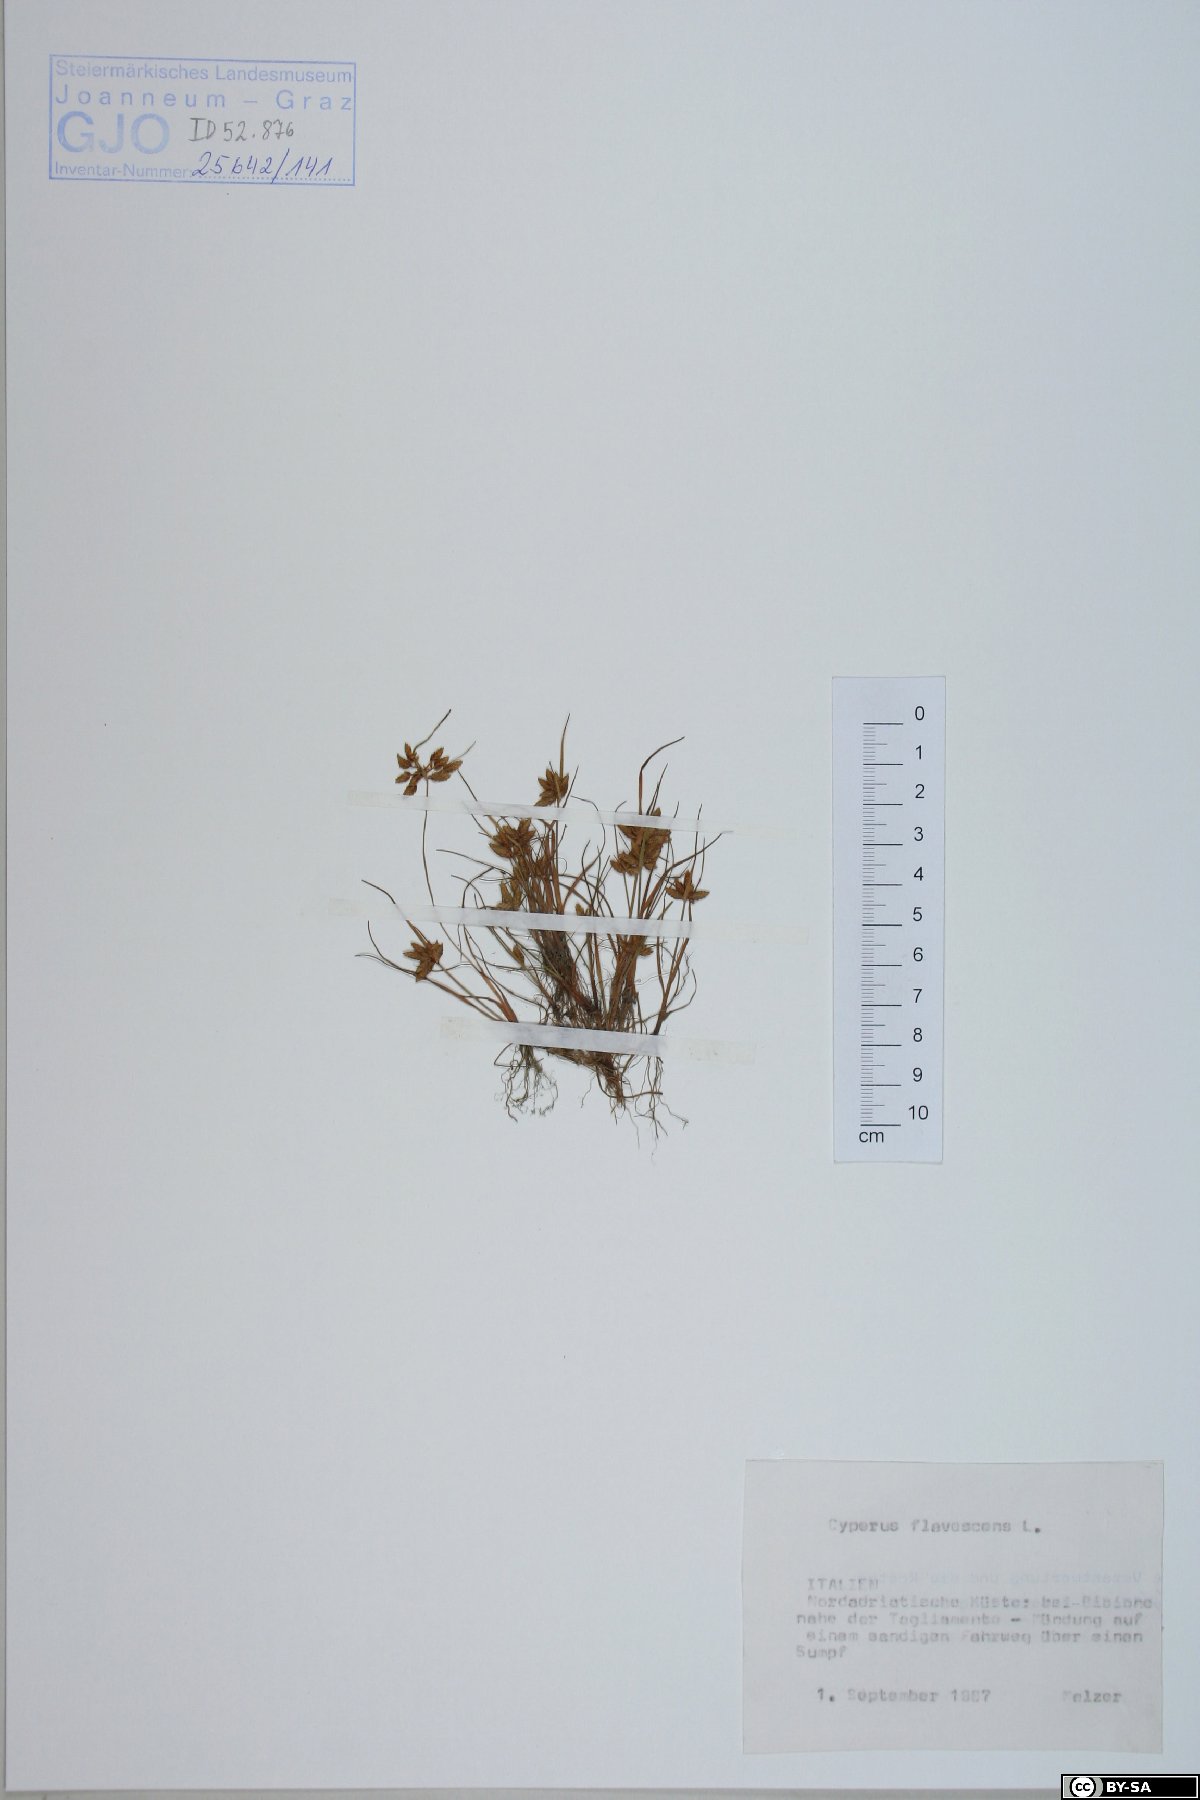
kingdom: Plantae
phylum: Tracheophyta
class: Liliopsida
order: Poales
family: Cyperaceae
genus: Cyperus
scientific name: Cyperus flavescens
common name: Yellow galingale
